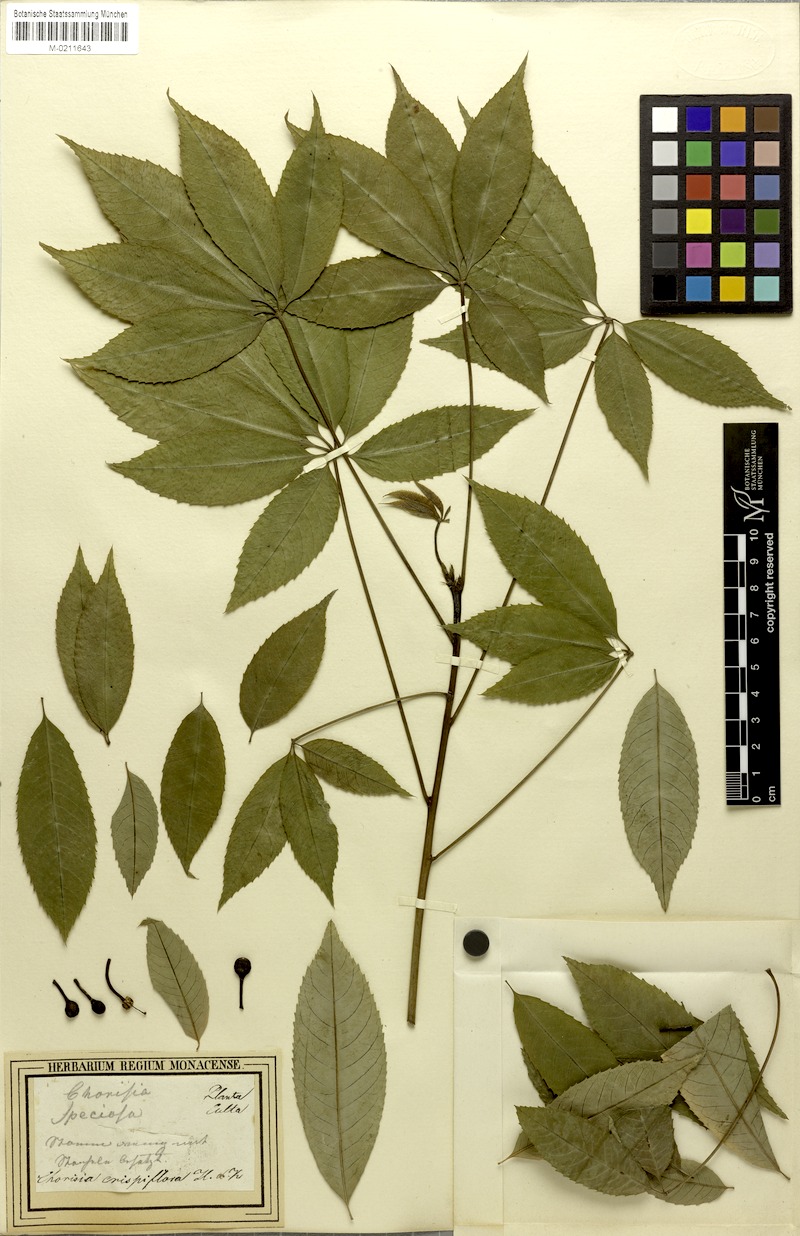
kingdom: Plantae
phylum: Tracheophyta
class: Magnoliopsida
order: Malvales
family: Malvaceae
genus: Ceiba
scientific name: Ceiba crispiflora
